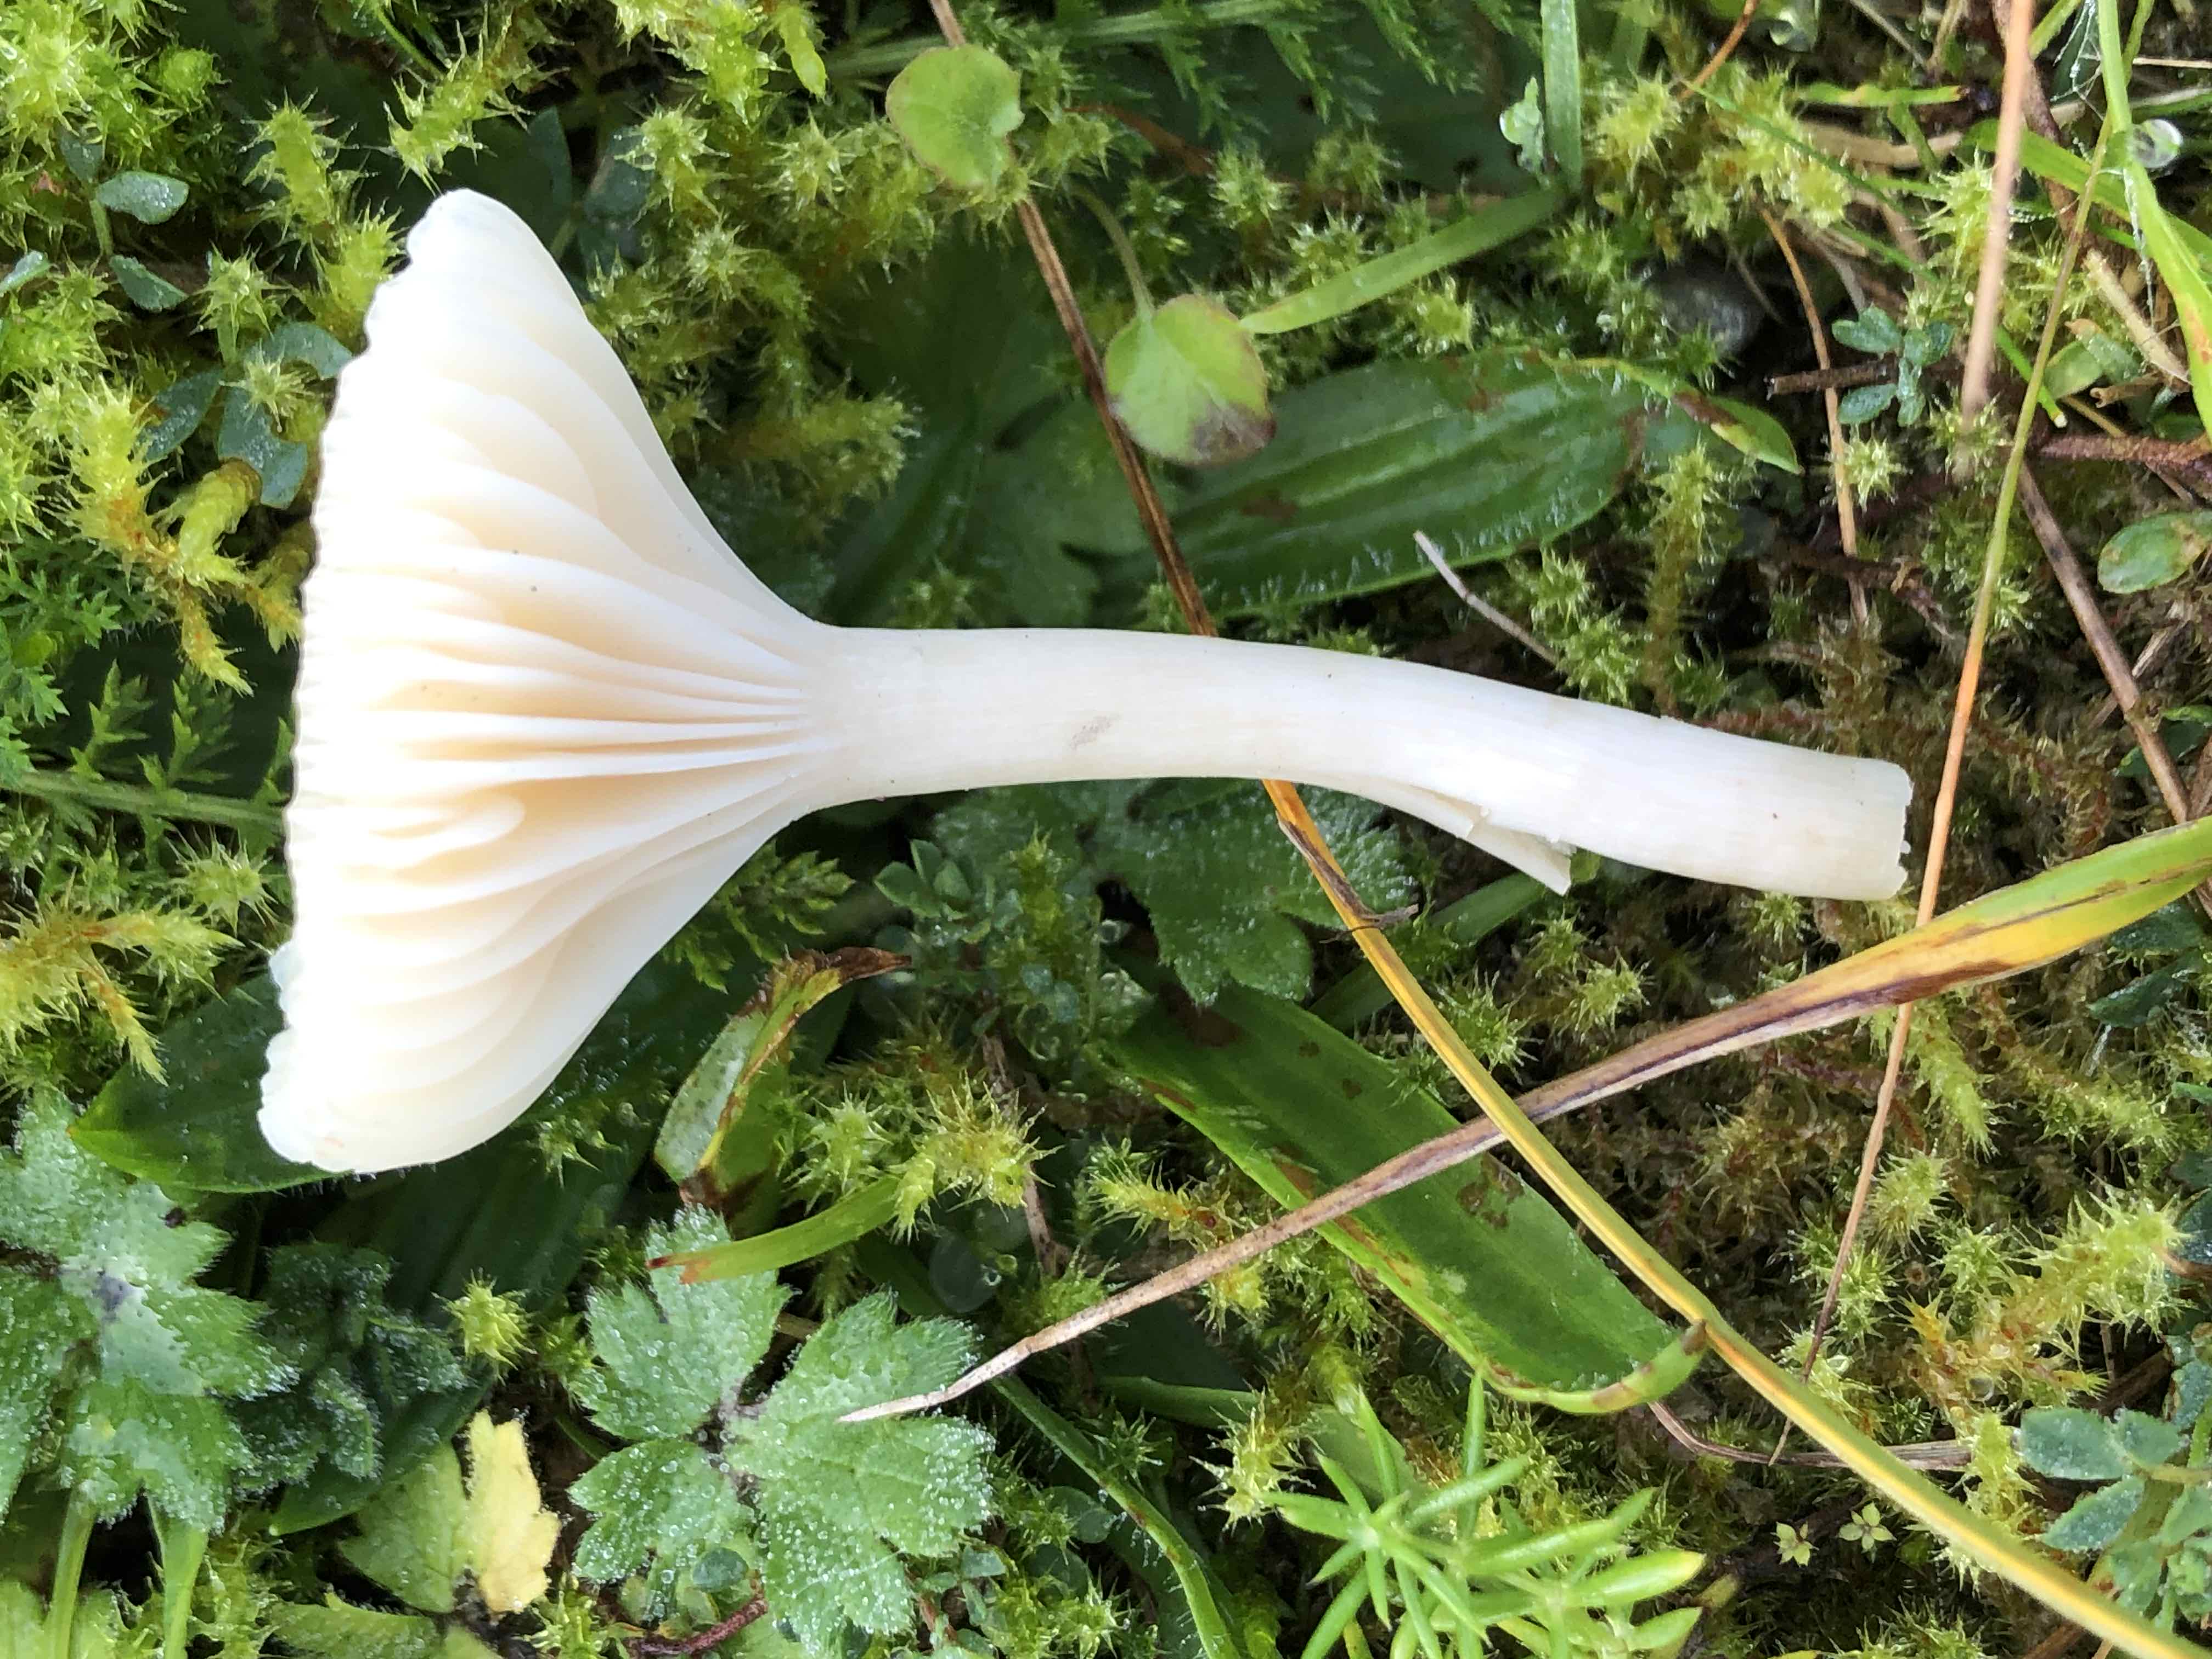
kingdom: Fungi
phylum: Basidiomycota
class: Agaricomycetes
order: Agaricales
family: Hygrophoraceae
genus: Cuphophyllus
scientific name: Cuphophyllus virgineus
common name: snehvid vokshat
